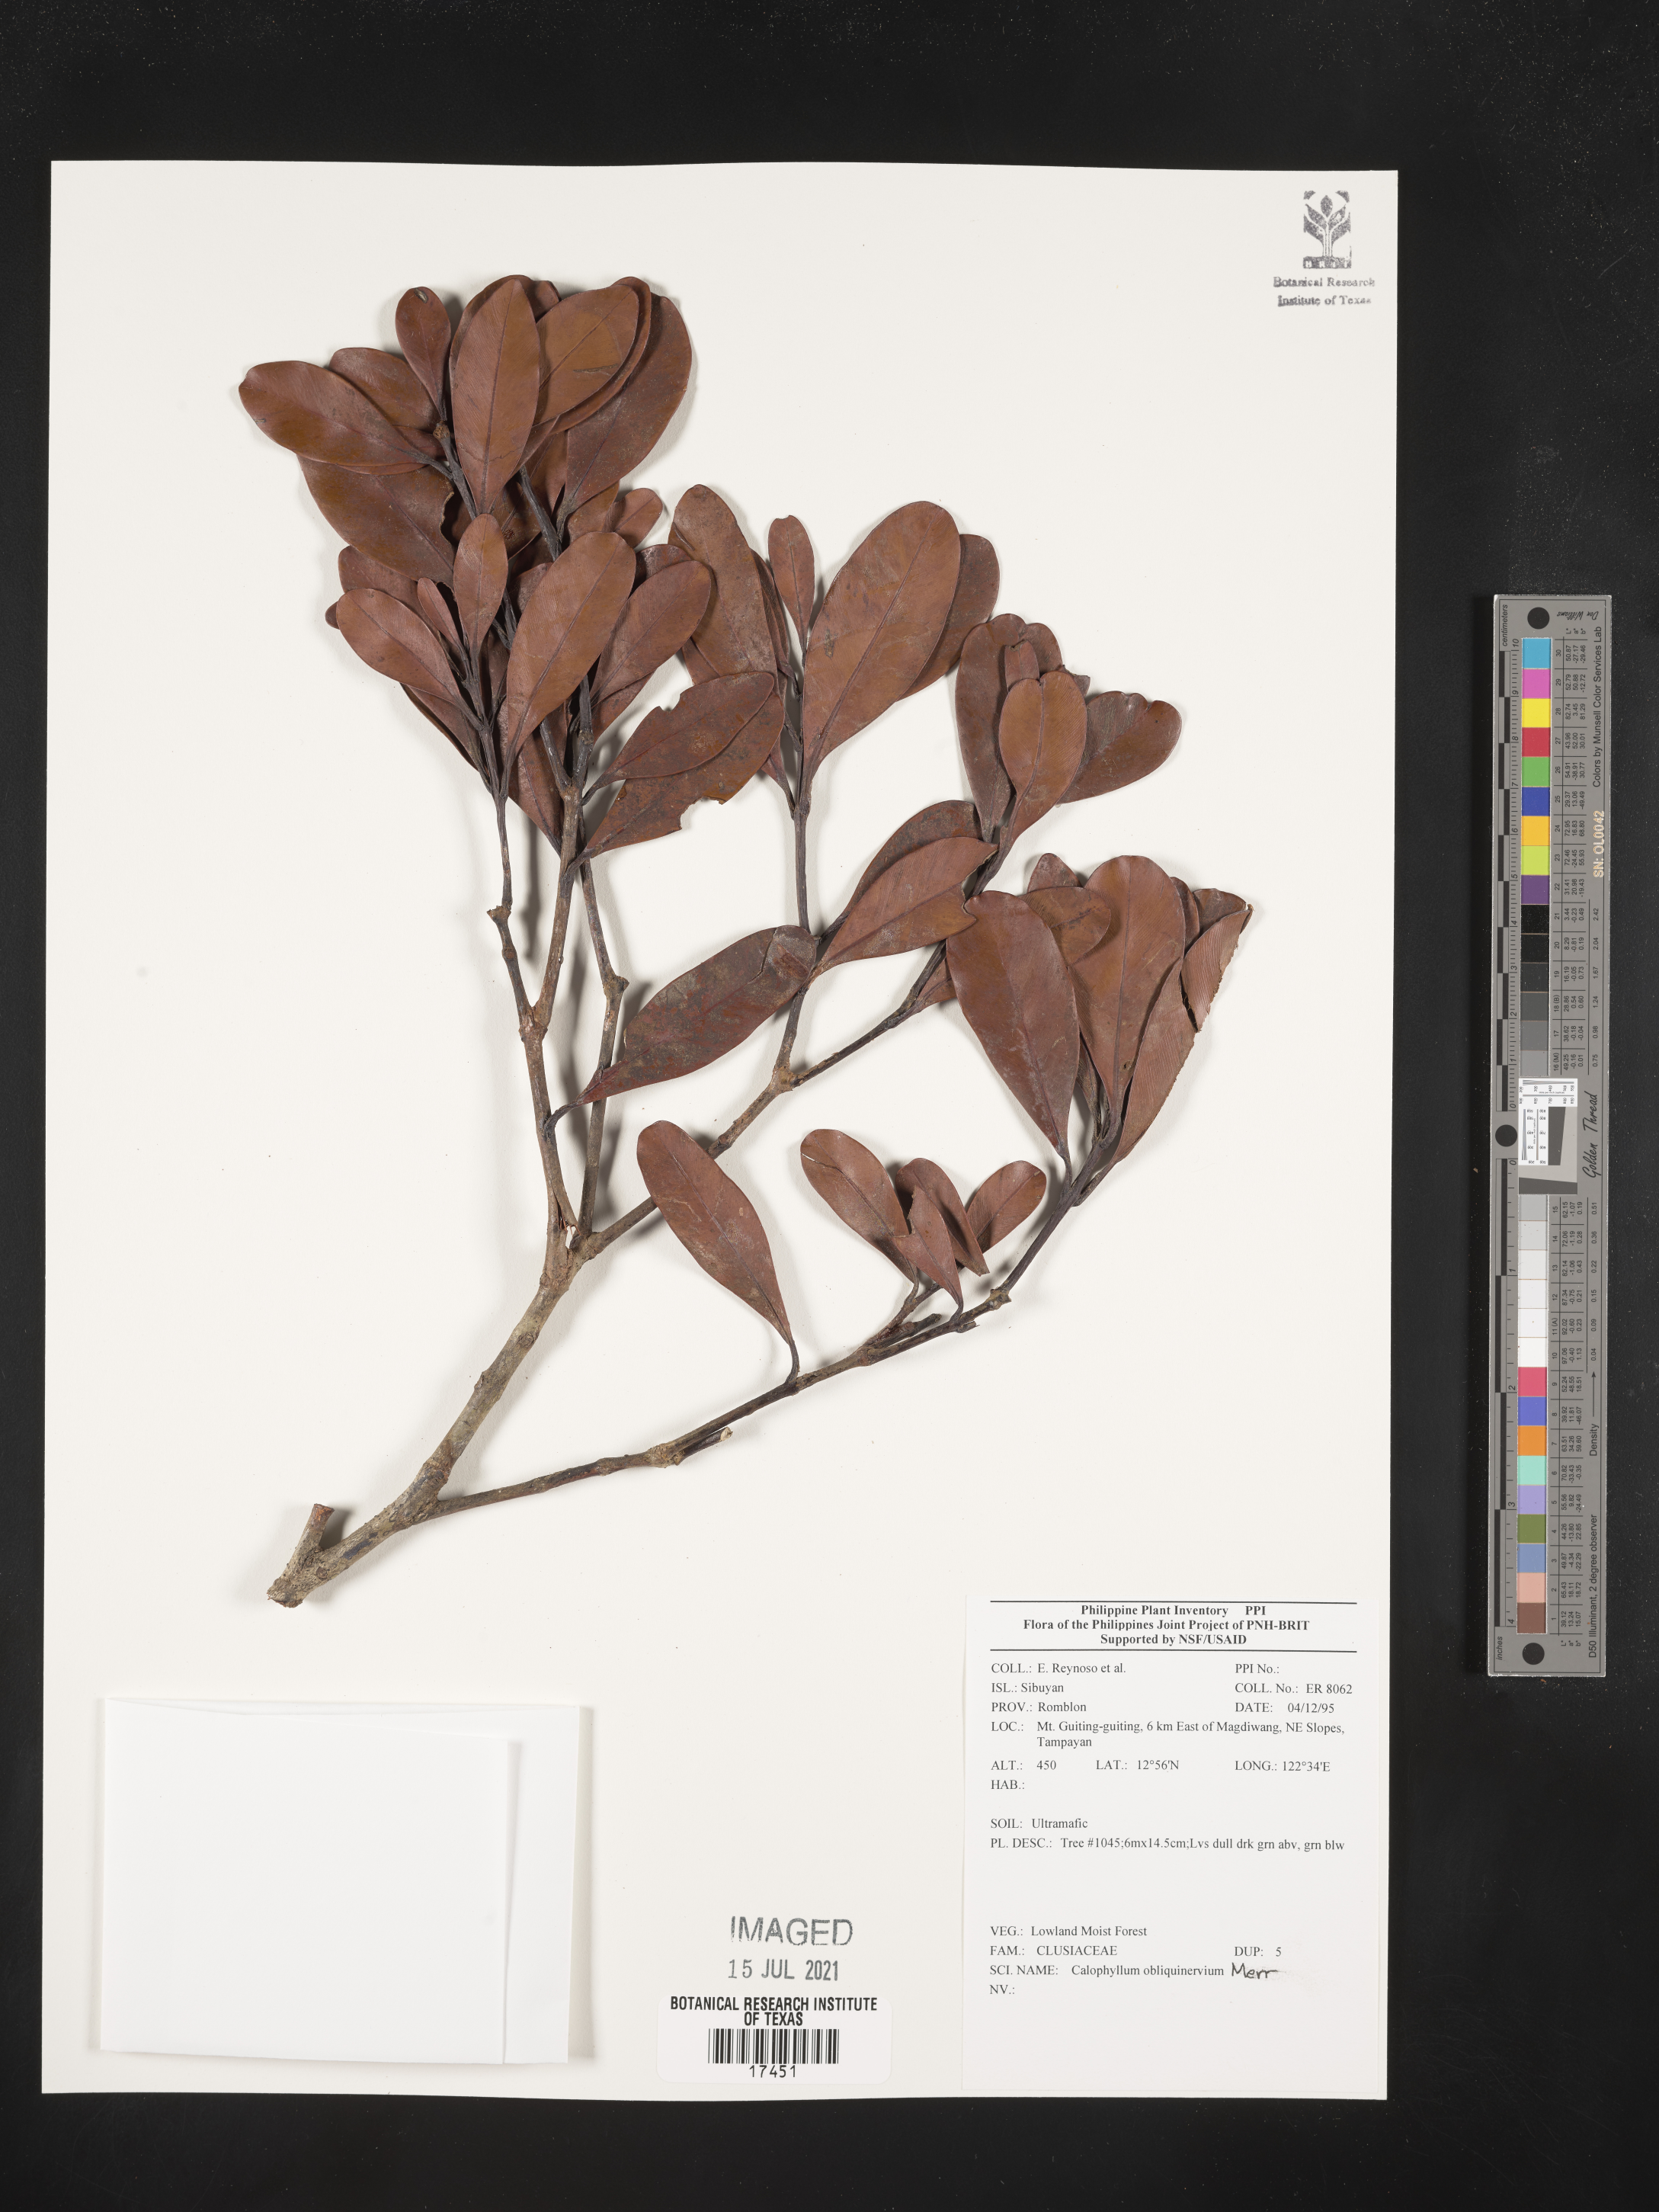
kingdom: Plantae
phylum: Tracheophyta
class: Magnoliopsida
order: Malpighiales
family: Calophyllaceae
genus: Calophyllum
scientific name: Calophyllum obliquinervium
